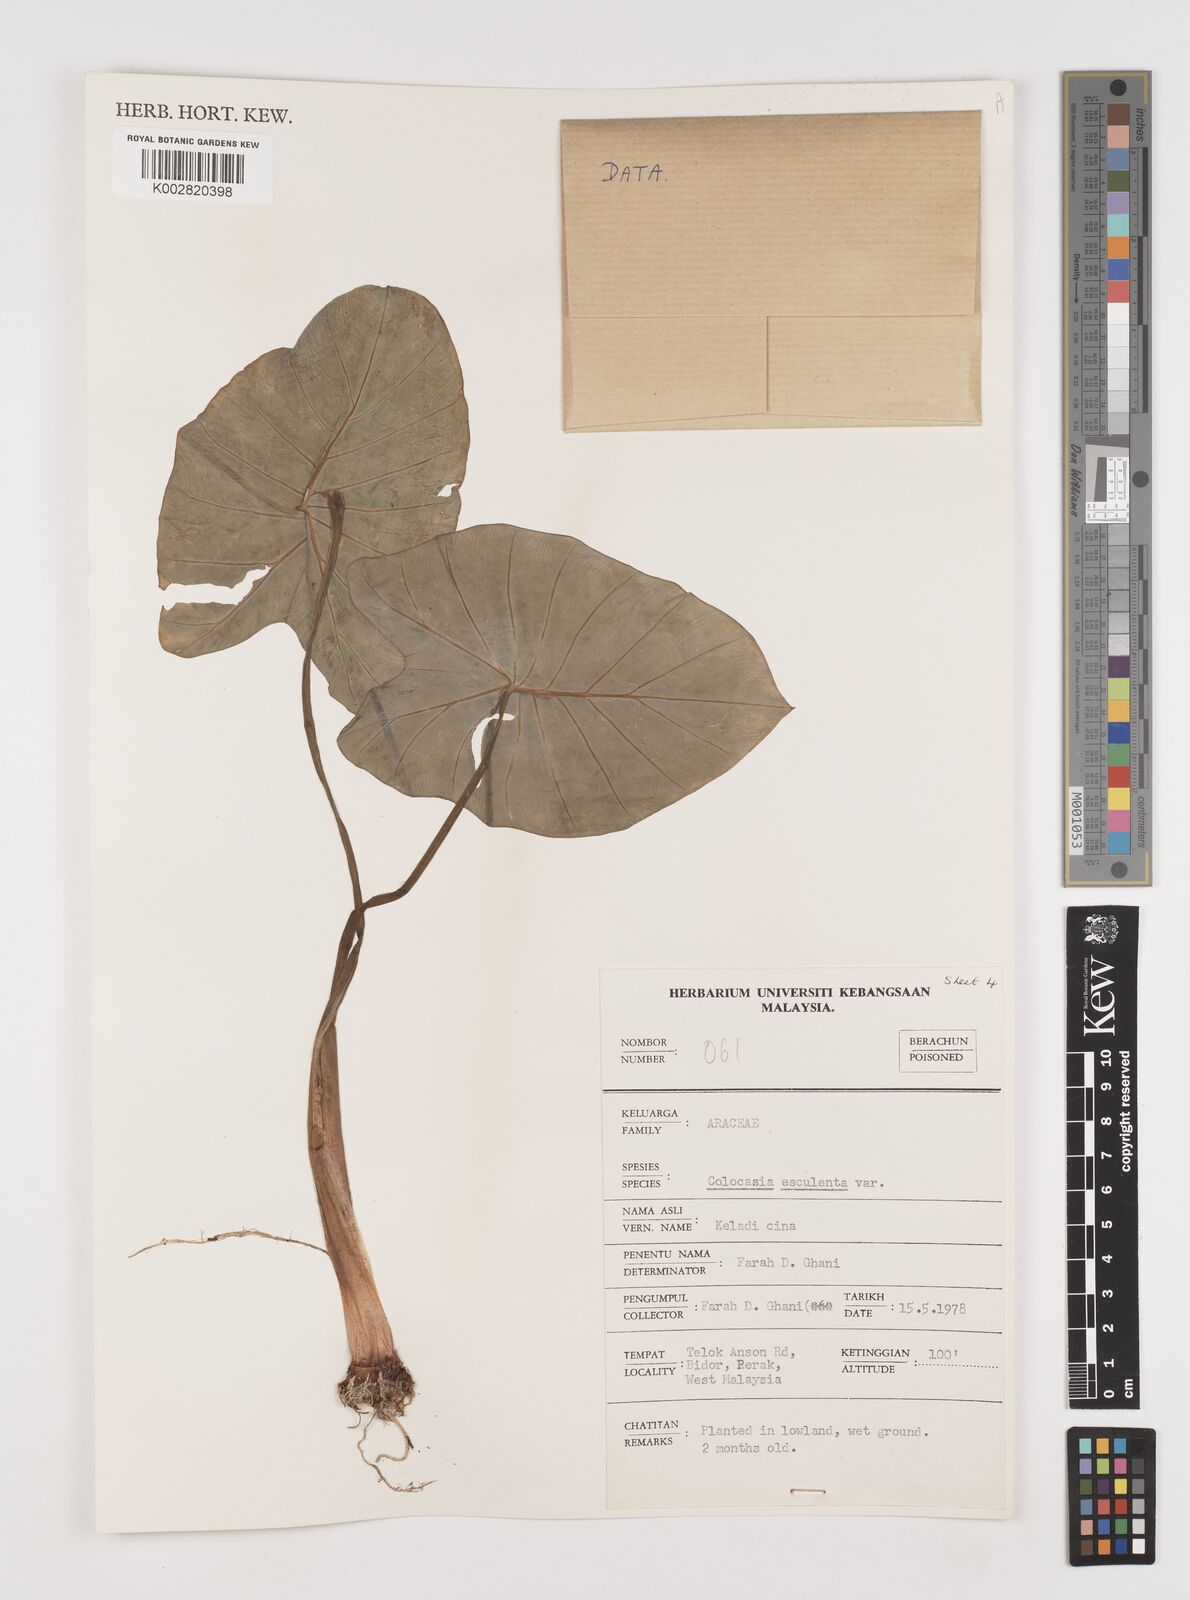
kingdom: Plantae
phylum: Tracheophyta
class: Liliopsida
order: Alismatales
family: Araceae
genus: Colocasia
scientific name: Colocasia esculenta
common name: Taro
